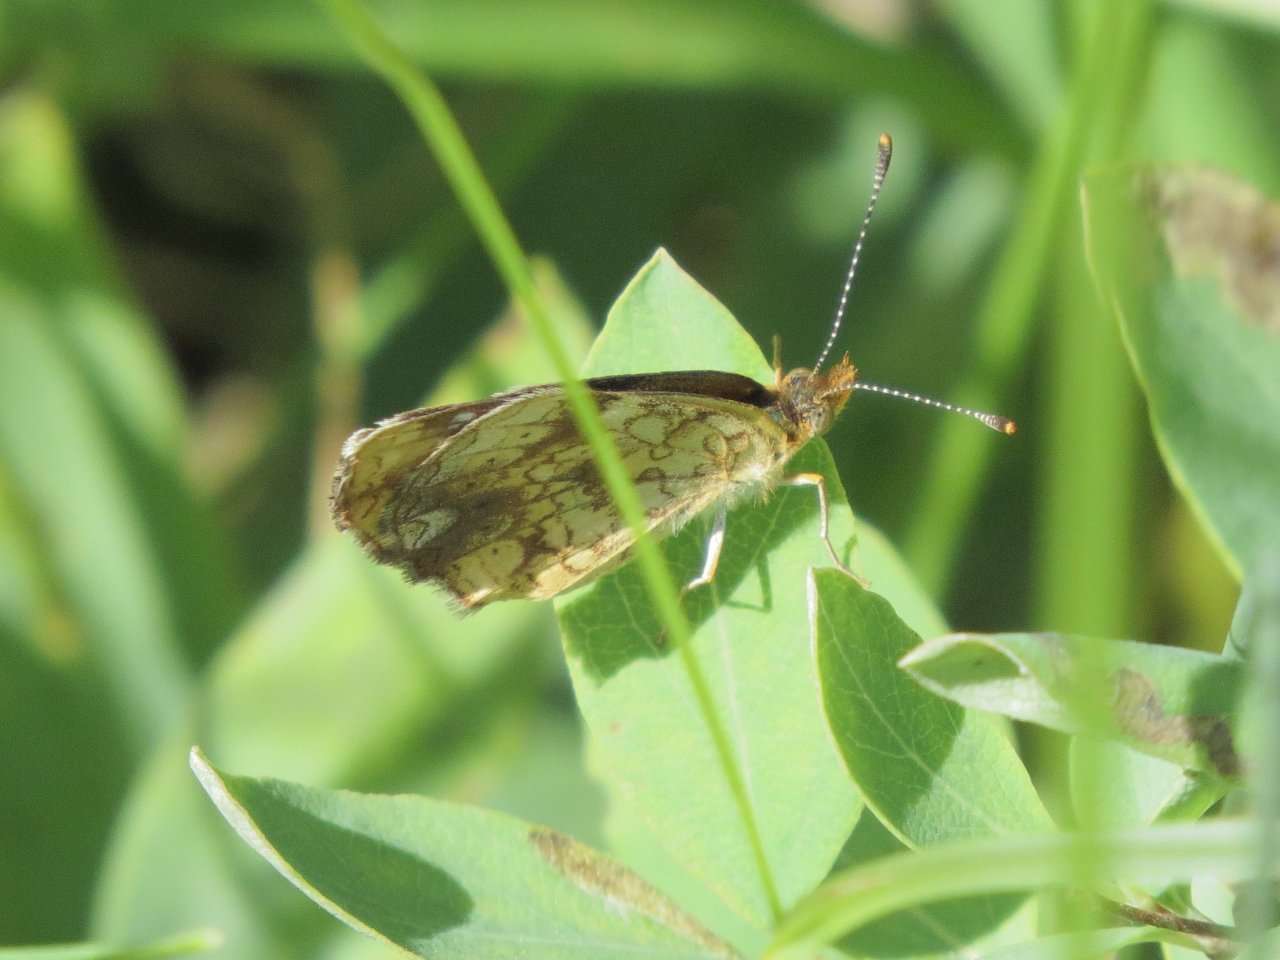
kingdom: Animalia
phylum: Arthropoda
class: Insecta
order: Lepidoptera
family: Nymphalidae
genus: Phyciodes
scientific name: Phyciodes tharos
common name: Northern Crescent
